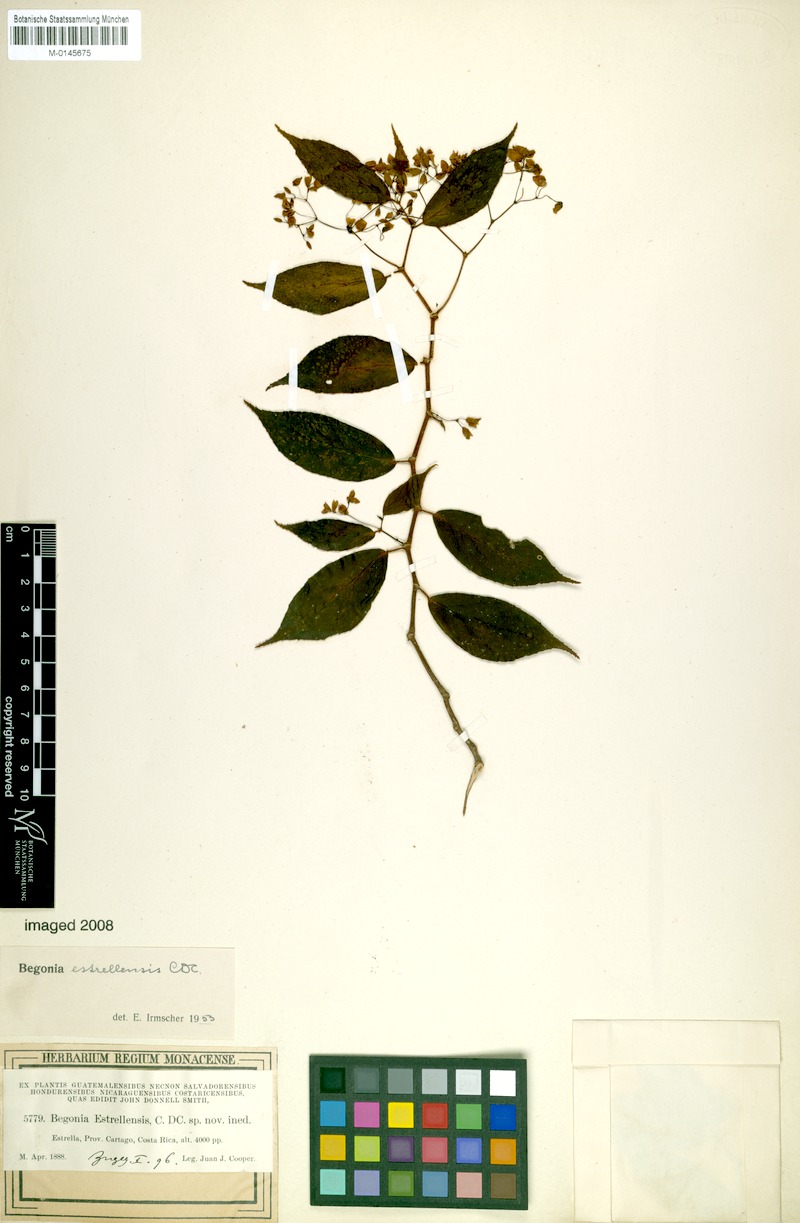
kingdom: Plantae
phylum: Tracheophyta
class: Magnoliopsida
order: Cucurbitales
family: Begoniaceae
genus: Begonia
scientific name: Begonia estrellensis
